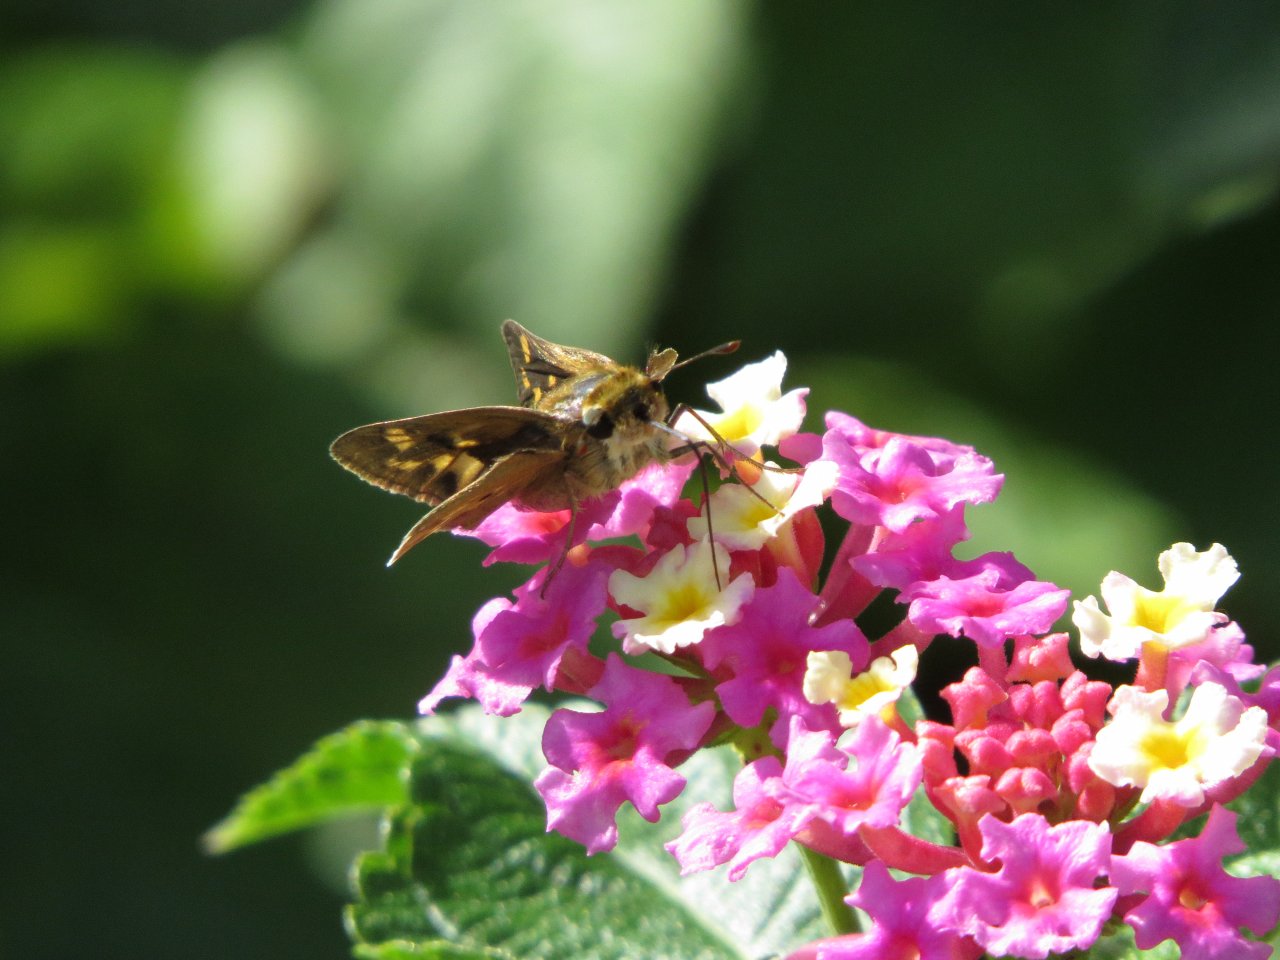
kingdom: Animalia
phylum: Arthropoda
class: Insecta
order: Lepidoptera
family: Hesperiidae
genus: Hylephila
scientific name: Hylephila phyleus
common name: Fiery Skipper
